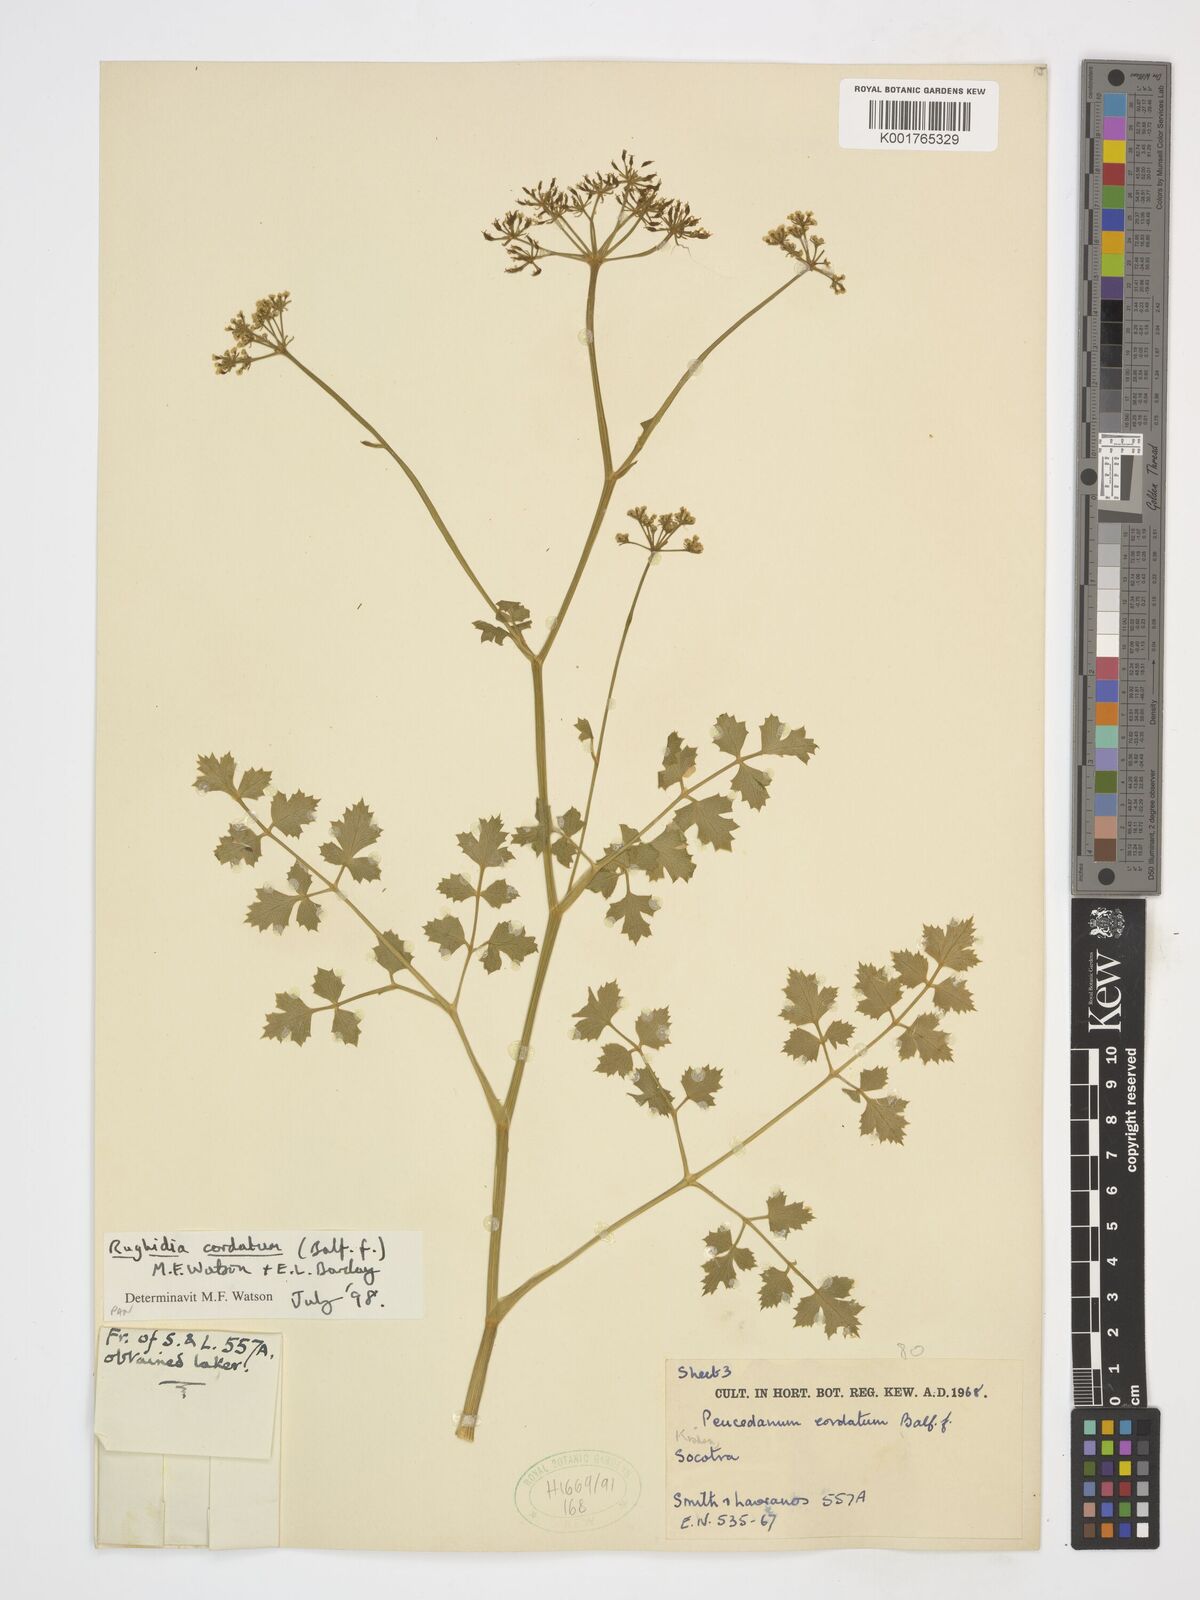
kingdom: Plantae
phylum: Tracheophyta
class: Magnoliopsida
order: Apiales
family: Apiaceae
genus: Rughidia
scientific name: Rughidia cordata
